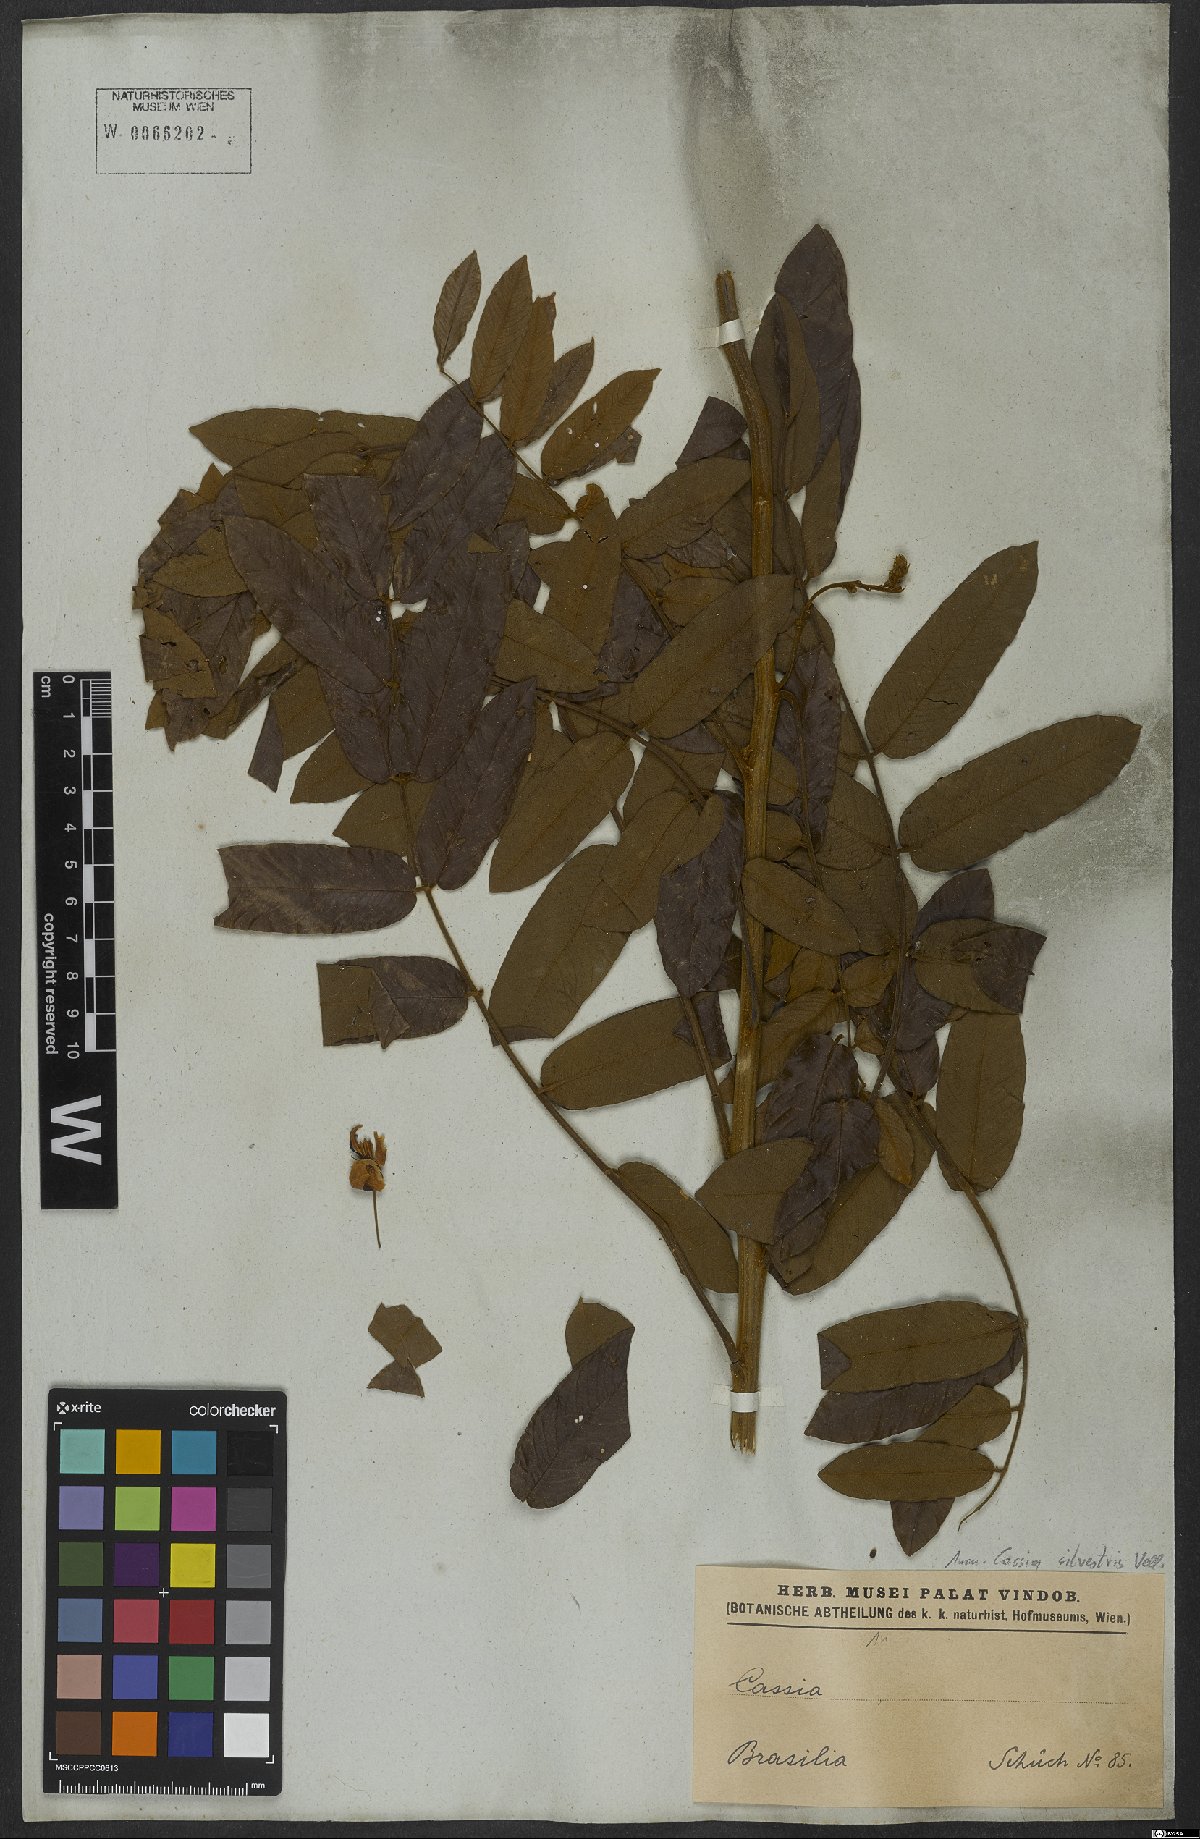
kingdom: Plantae
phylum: Tracheophyta
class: Magnoliopsida
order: Fabales
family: Fabaceae
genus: Senna
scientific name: Senna silvestris
